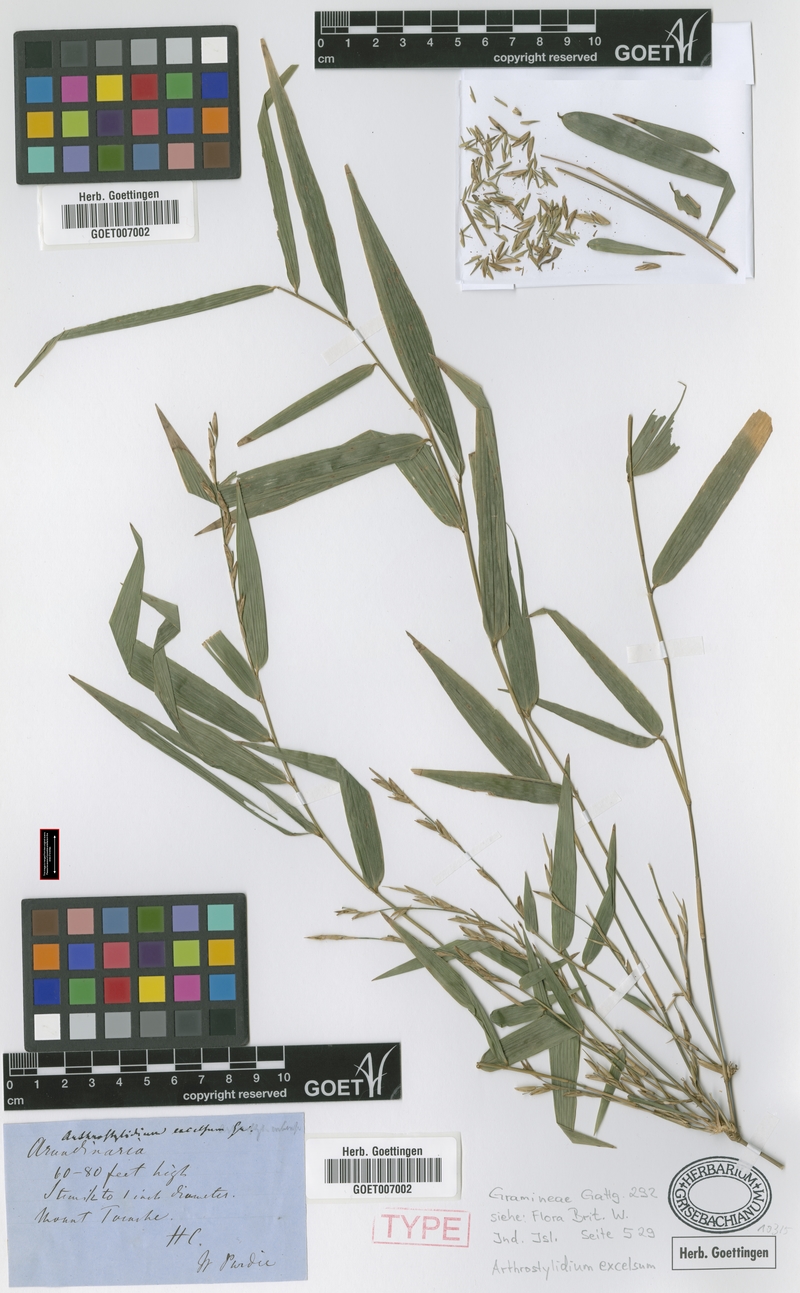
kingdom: Plantae
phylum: Tracheophyta
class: Liliopsida
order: Poales
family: Poaceae
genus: Arthrostylidium
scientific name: Arthrostylidium excelsum
